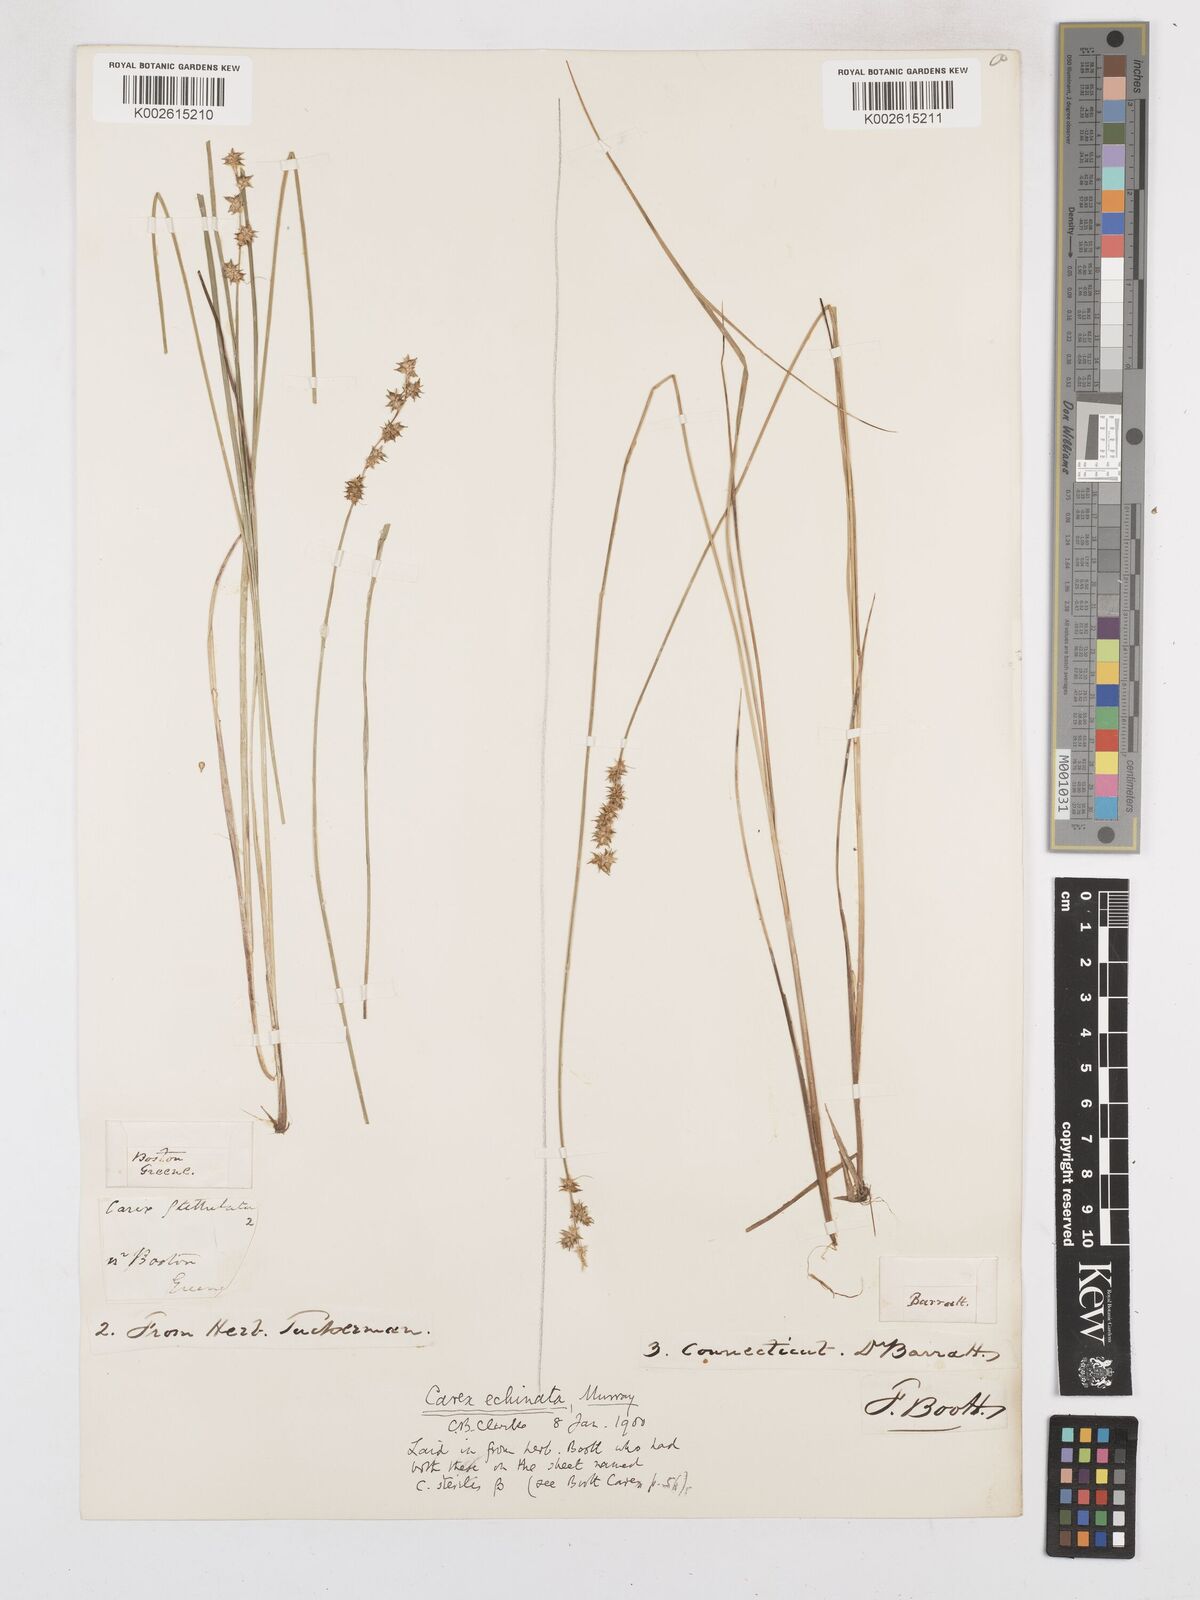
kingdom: Plantae
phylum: Tracheophyta
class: Liliopsida
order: Poales
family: Cyperaceae
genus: Carex
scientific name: Carex echinata
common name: Star sedge
